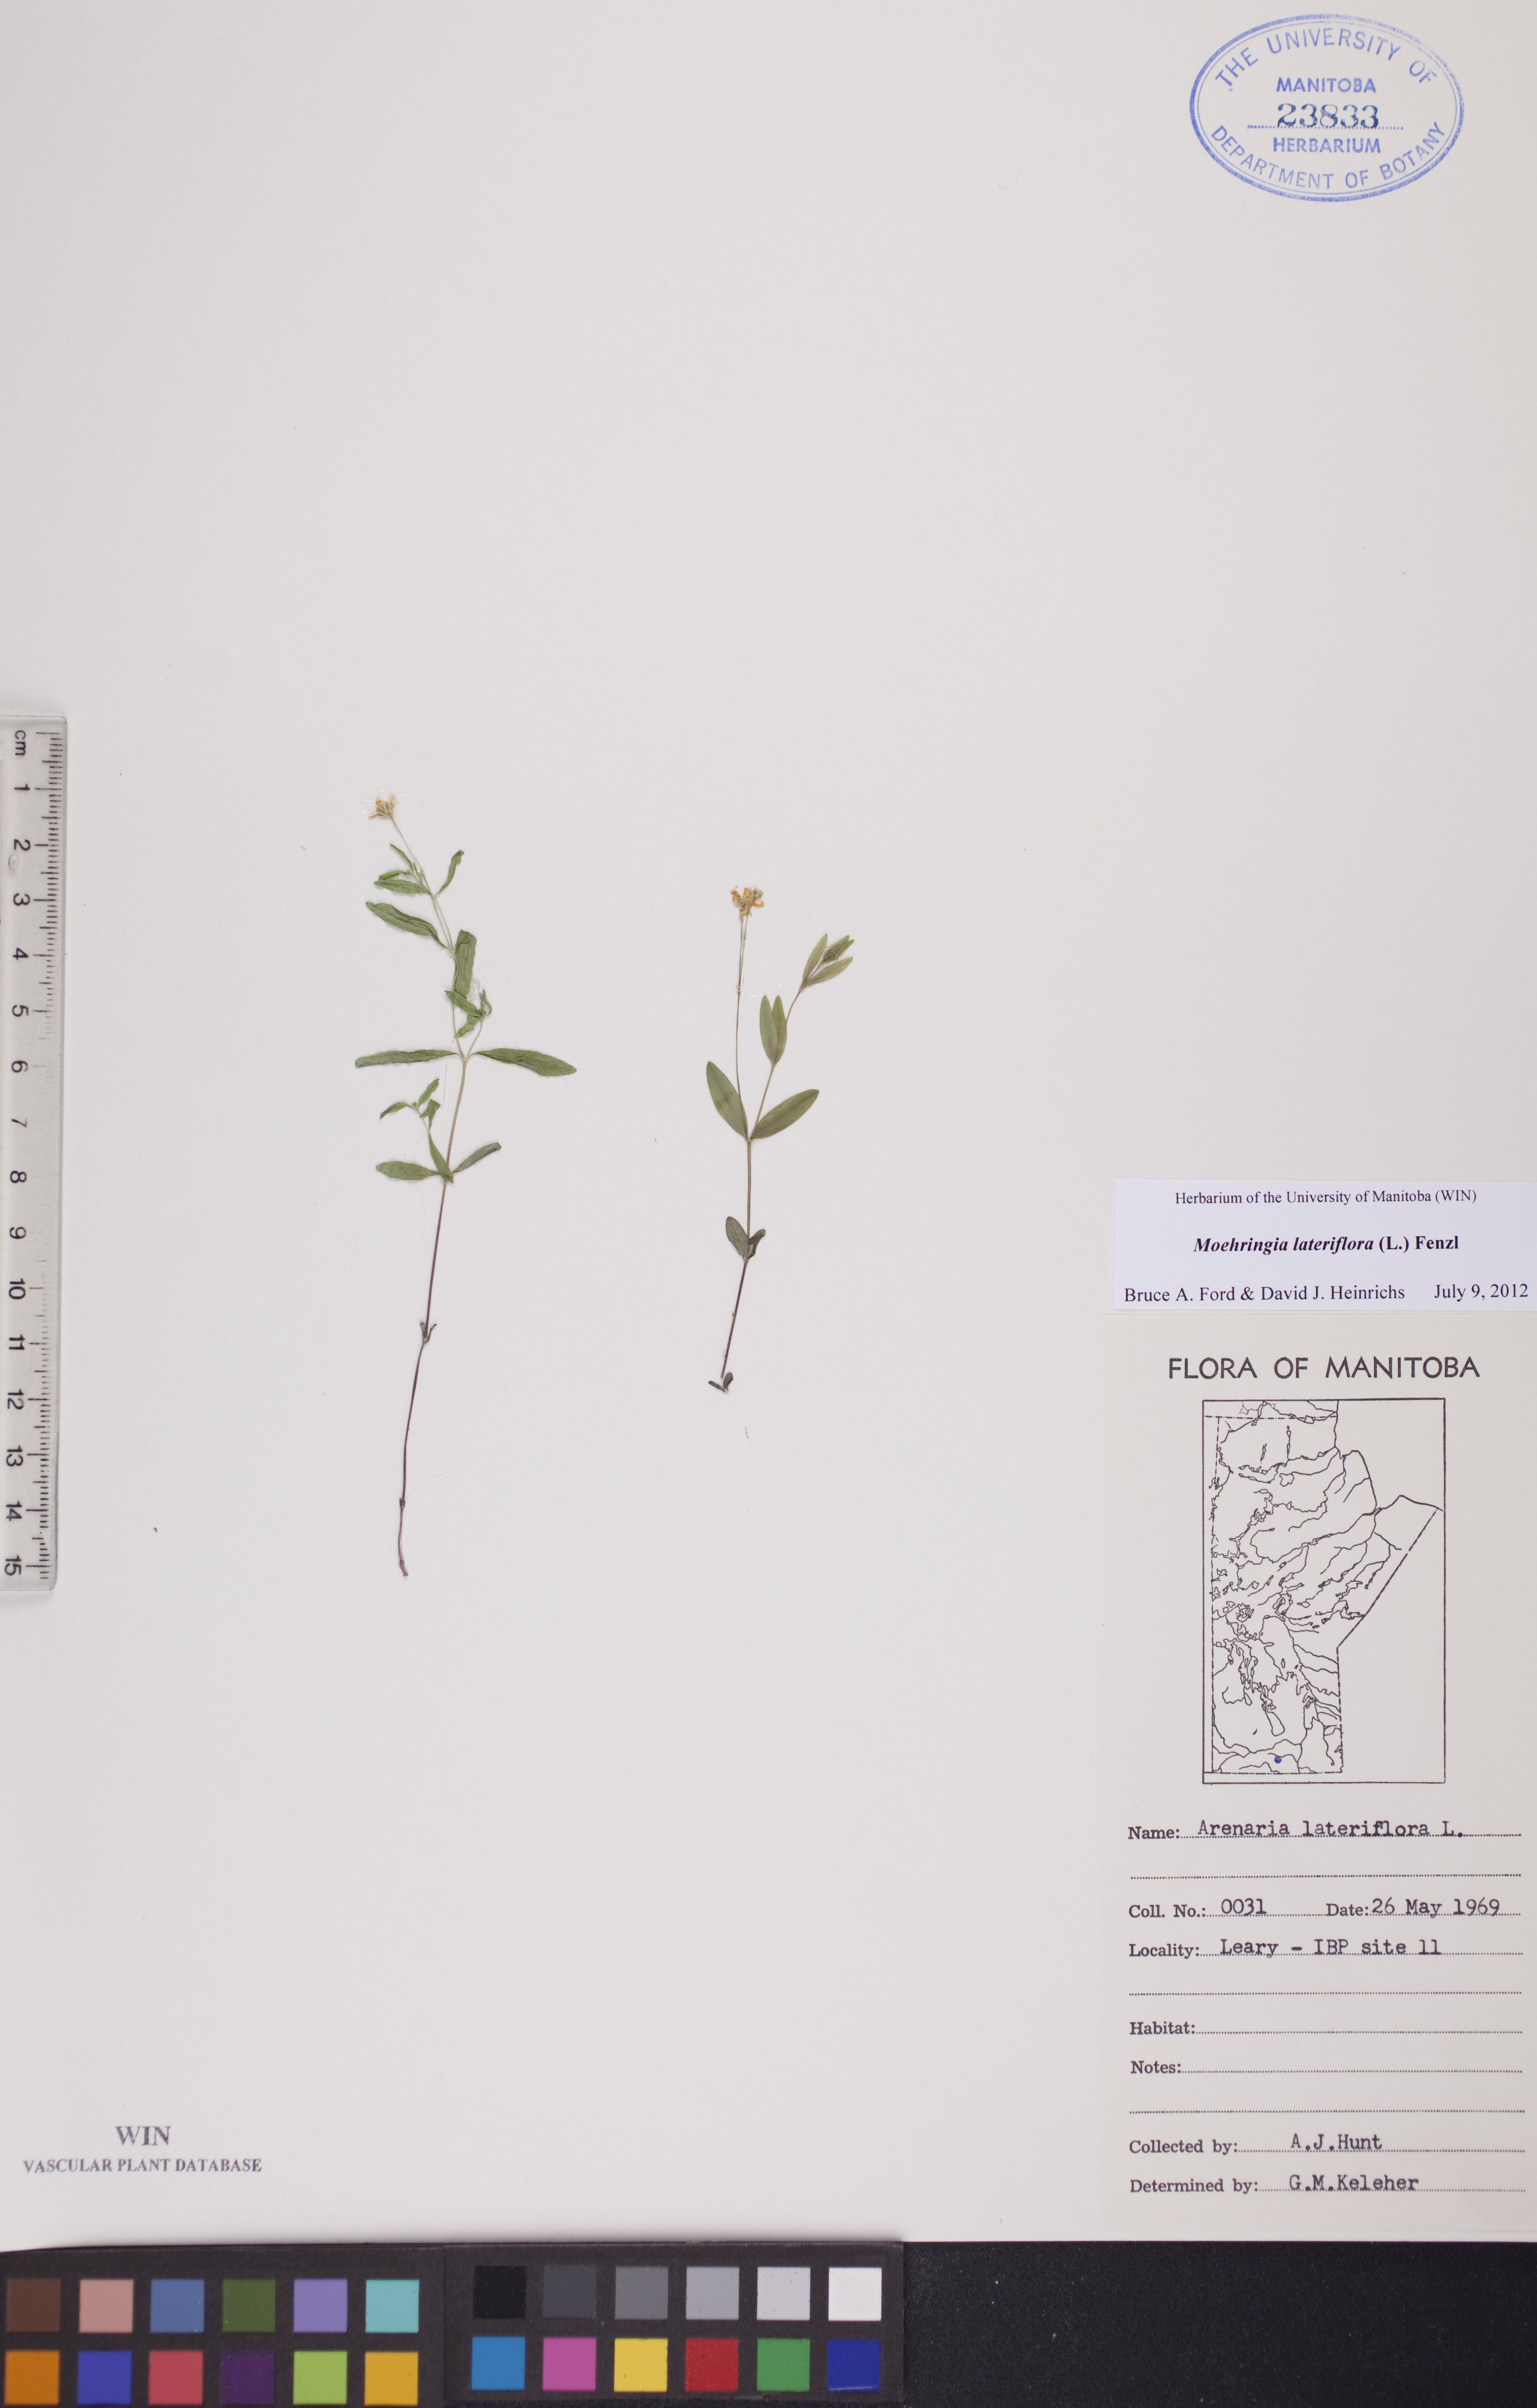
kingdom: Plantae
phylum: Tracheophyta
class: Magnoliopsida
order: Caryophyllales
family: Caryophyllaceae
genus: Moehringia
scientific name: Moehringia lateriflora
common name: Blunt-leaved sandwort
